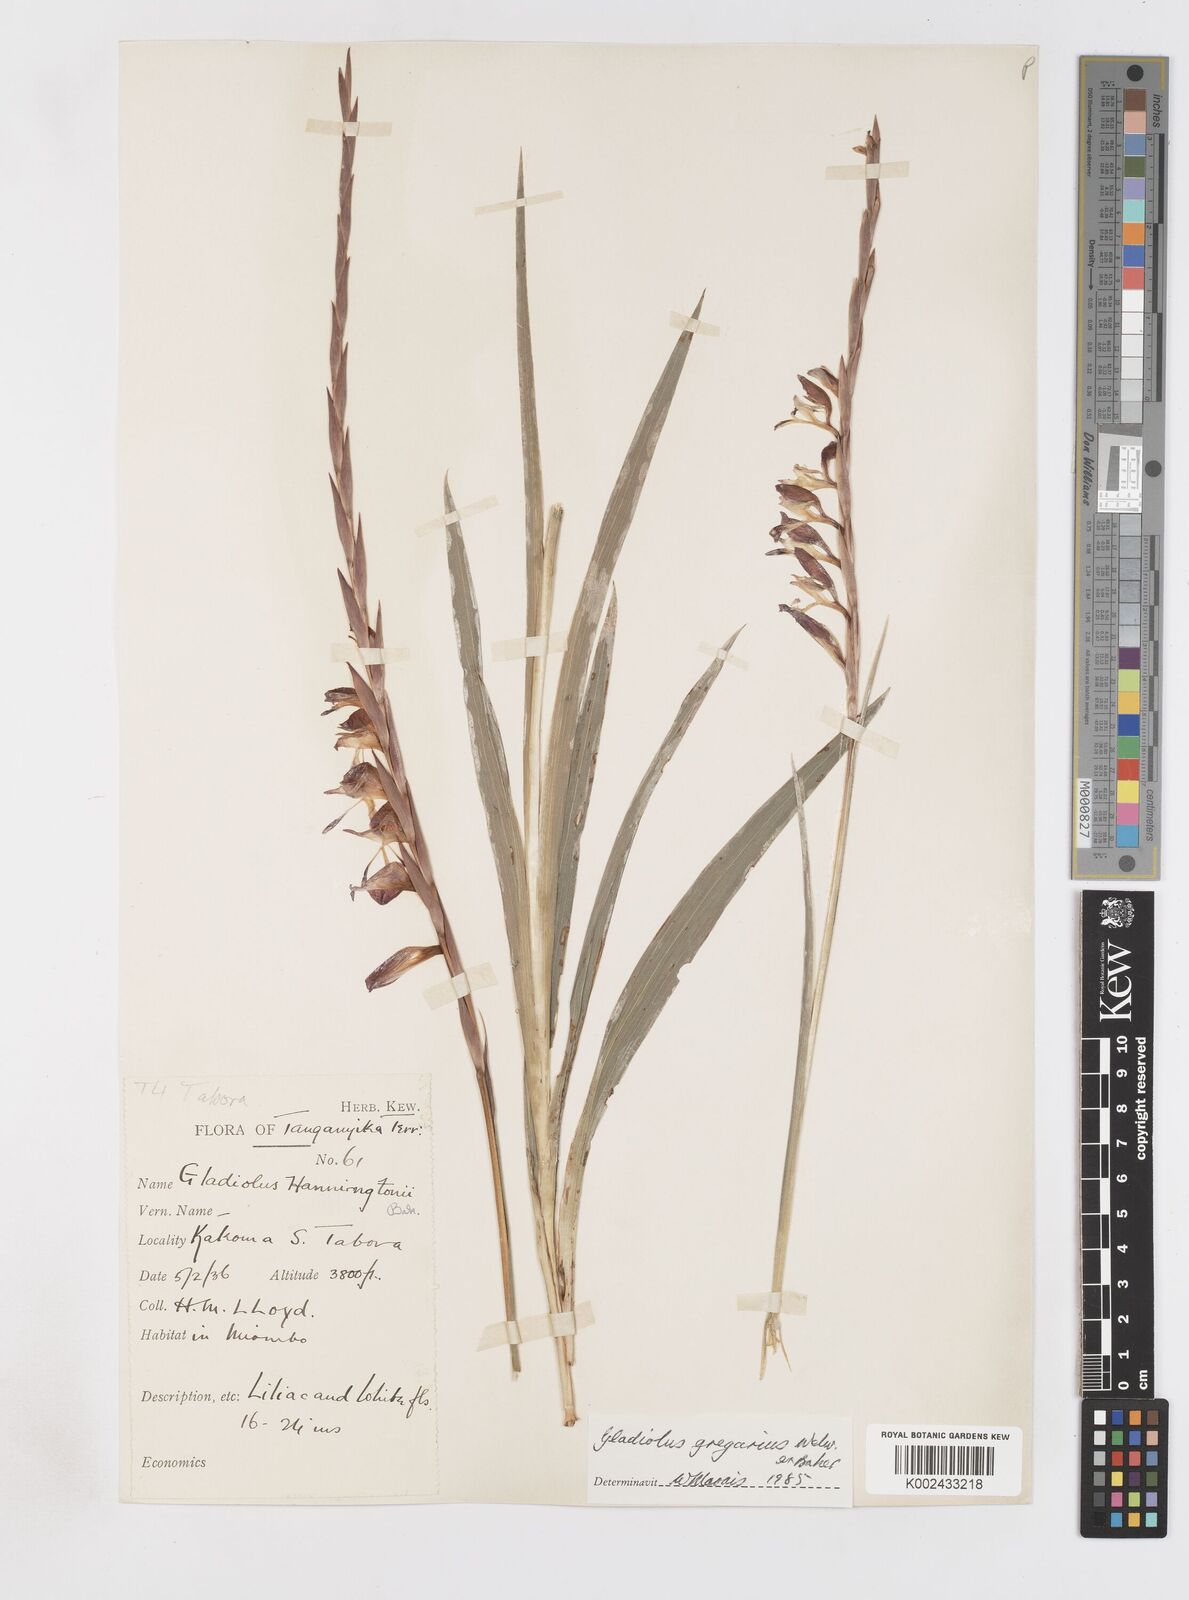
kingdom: Plantae
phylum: Tracheophyta
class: Liliopsida
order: Asparagales
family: Iridaceae
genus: Gladiolus
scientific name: Gladiolus gregarius
